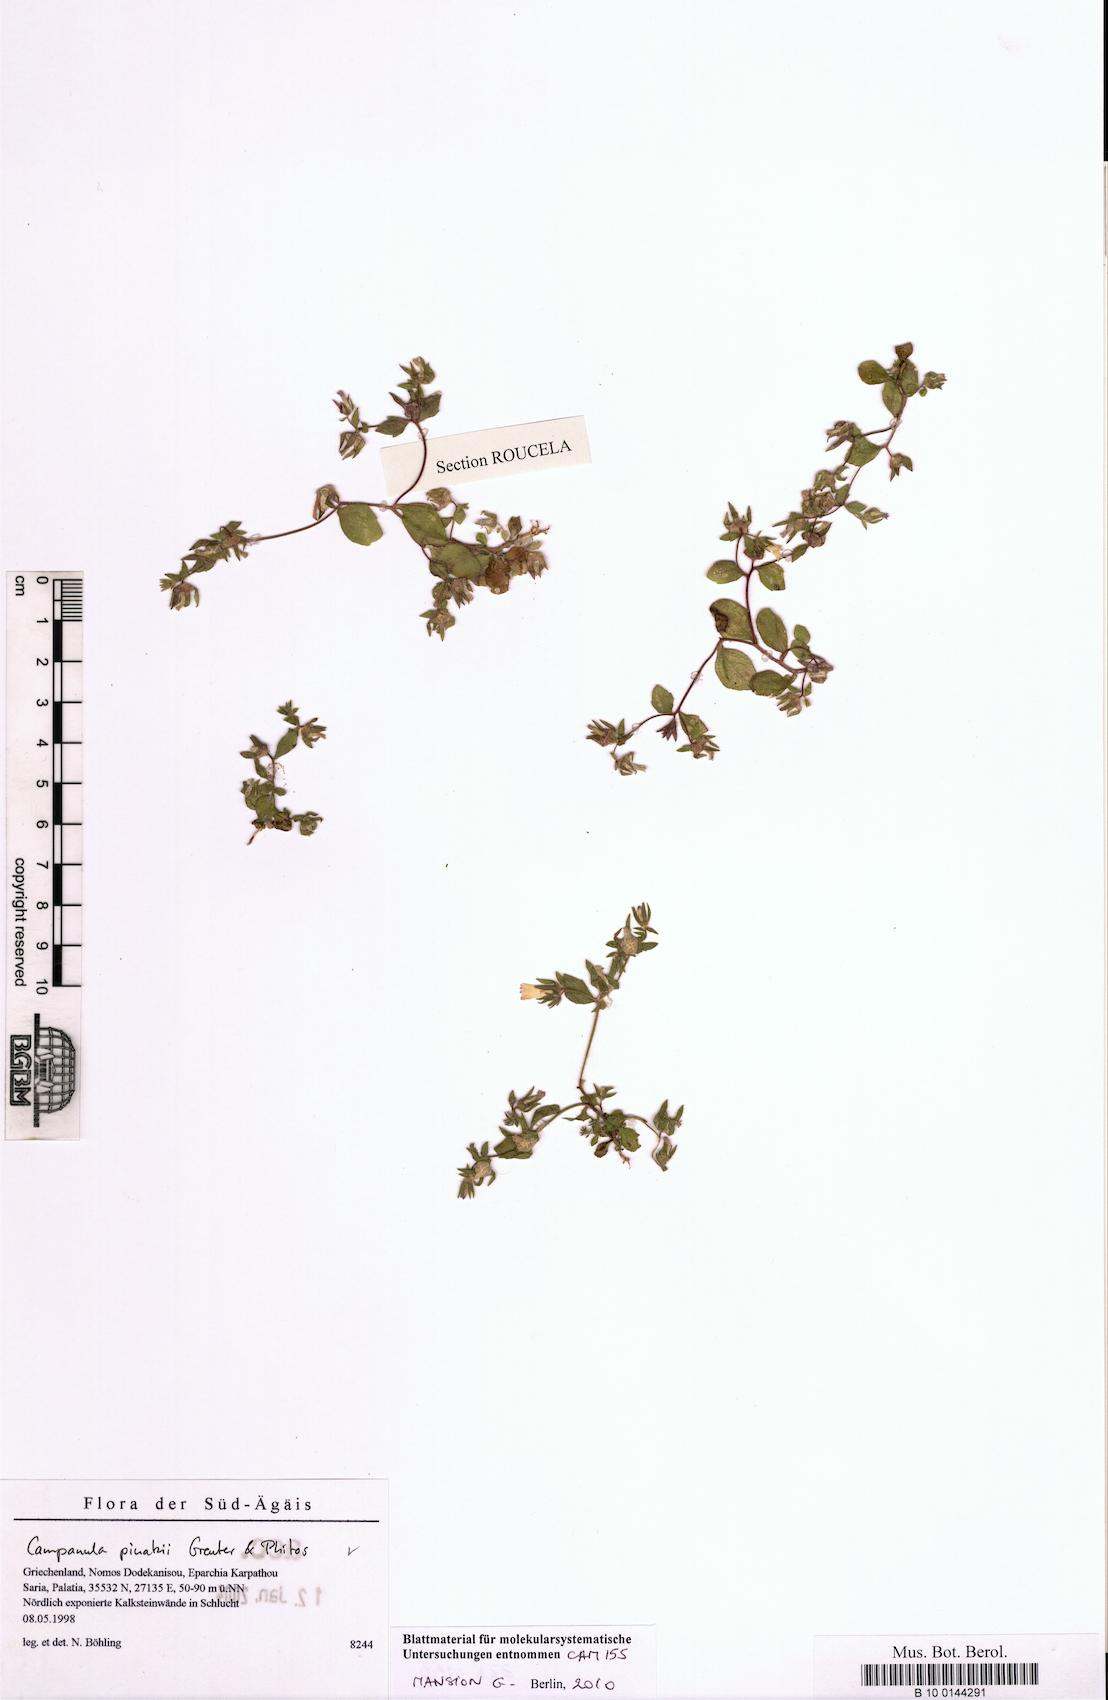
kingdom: Plantae
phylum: Tracheophyta
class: Magnoliopsida
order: Asterales
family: Campanulaceae
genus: Campanula
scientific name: Campanula pinatzii
